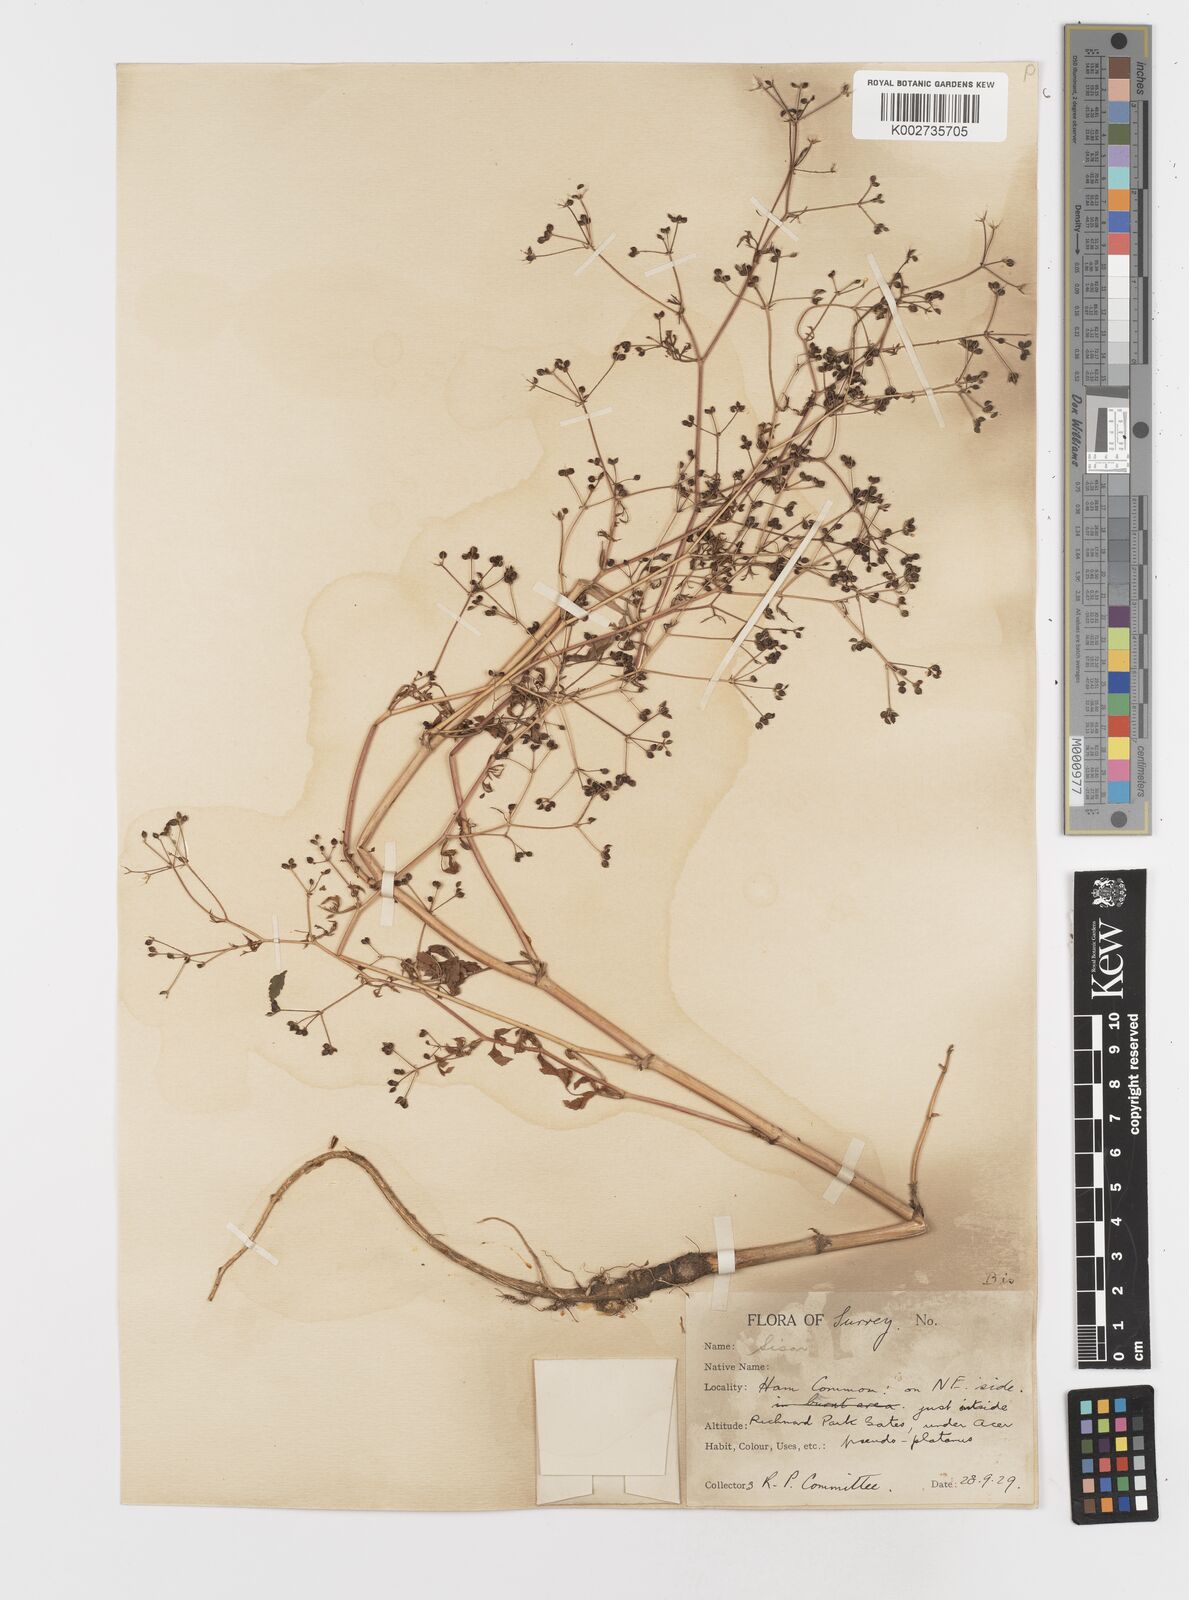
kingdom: Plantae
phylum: Tracheophyta
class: Magnoliopsida
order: Apiales
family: Apiaceae
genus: Sison
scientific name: Sison amomum
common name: Stone-parsley
